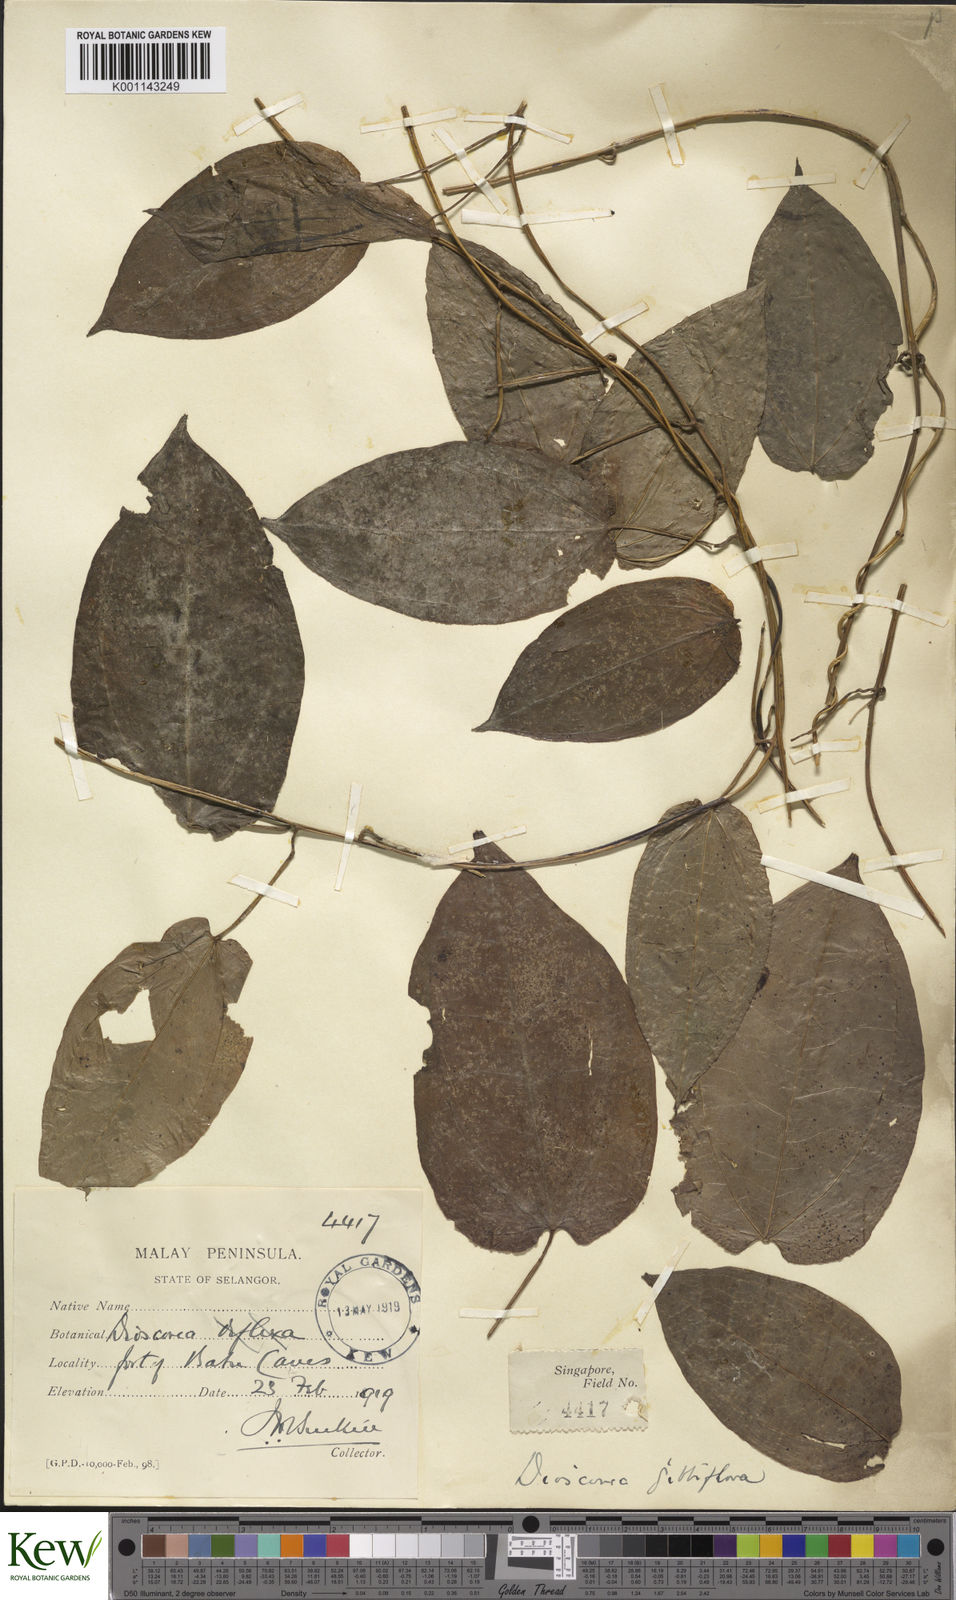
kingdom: Plantae
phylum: Tracheophyta
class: Liliopsida
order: Dioscoreales
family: Dioscoreaceae
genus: Dioscorea
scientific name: Dioscorea filiformis
